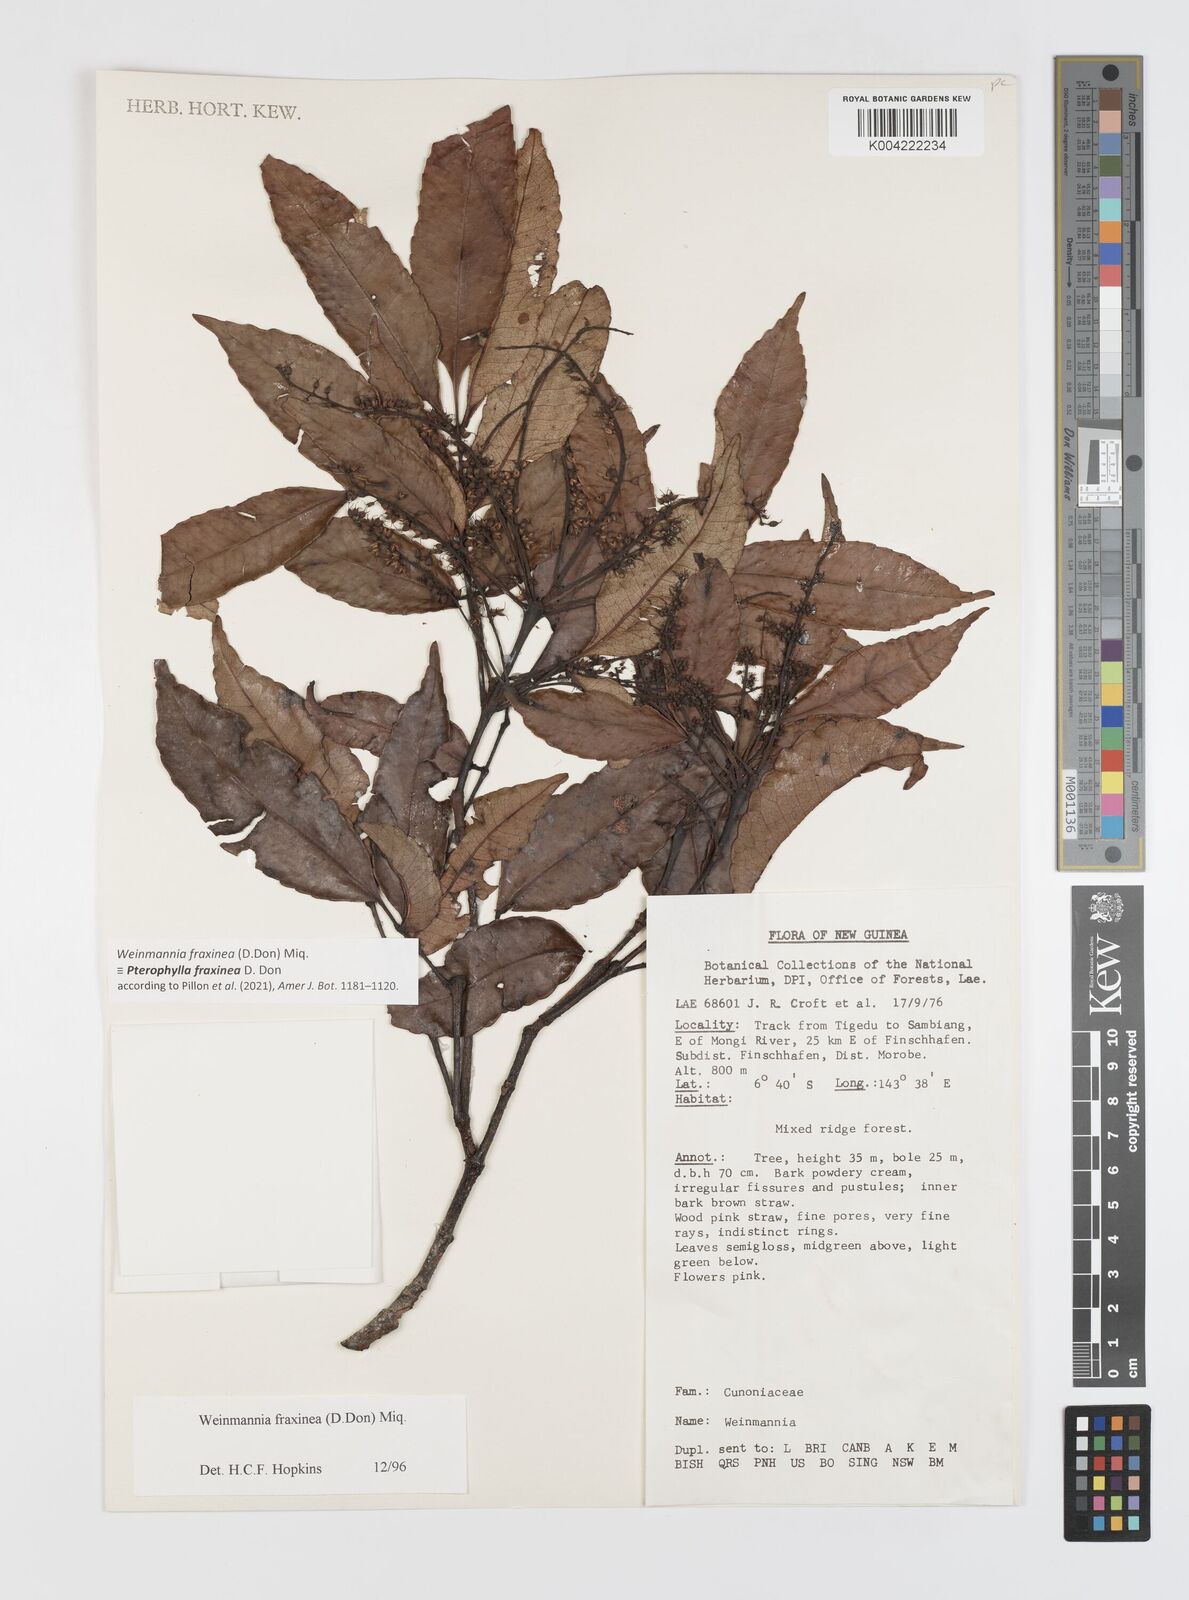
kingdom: Plantae
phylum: Tracheophyta
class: Magnoliopsida
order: Oxalidales
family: Cunoniaceae
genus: Pterophylla
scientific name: Pterophylla fraxinea
